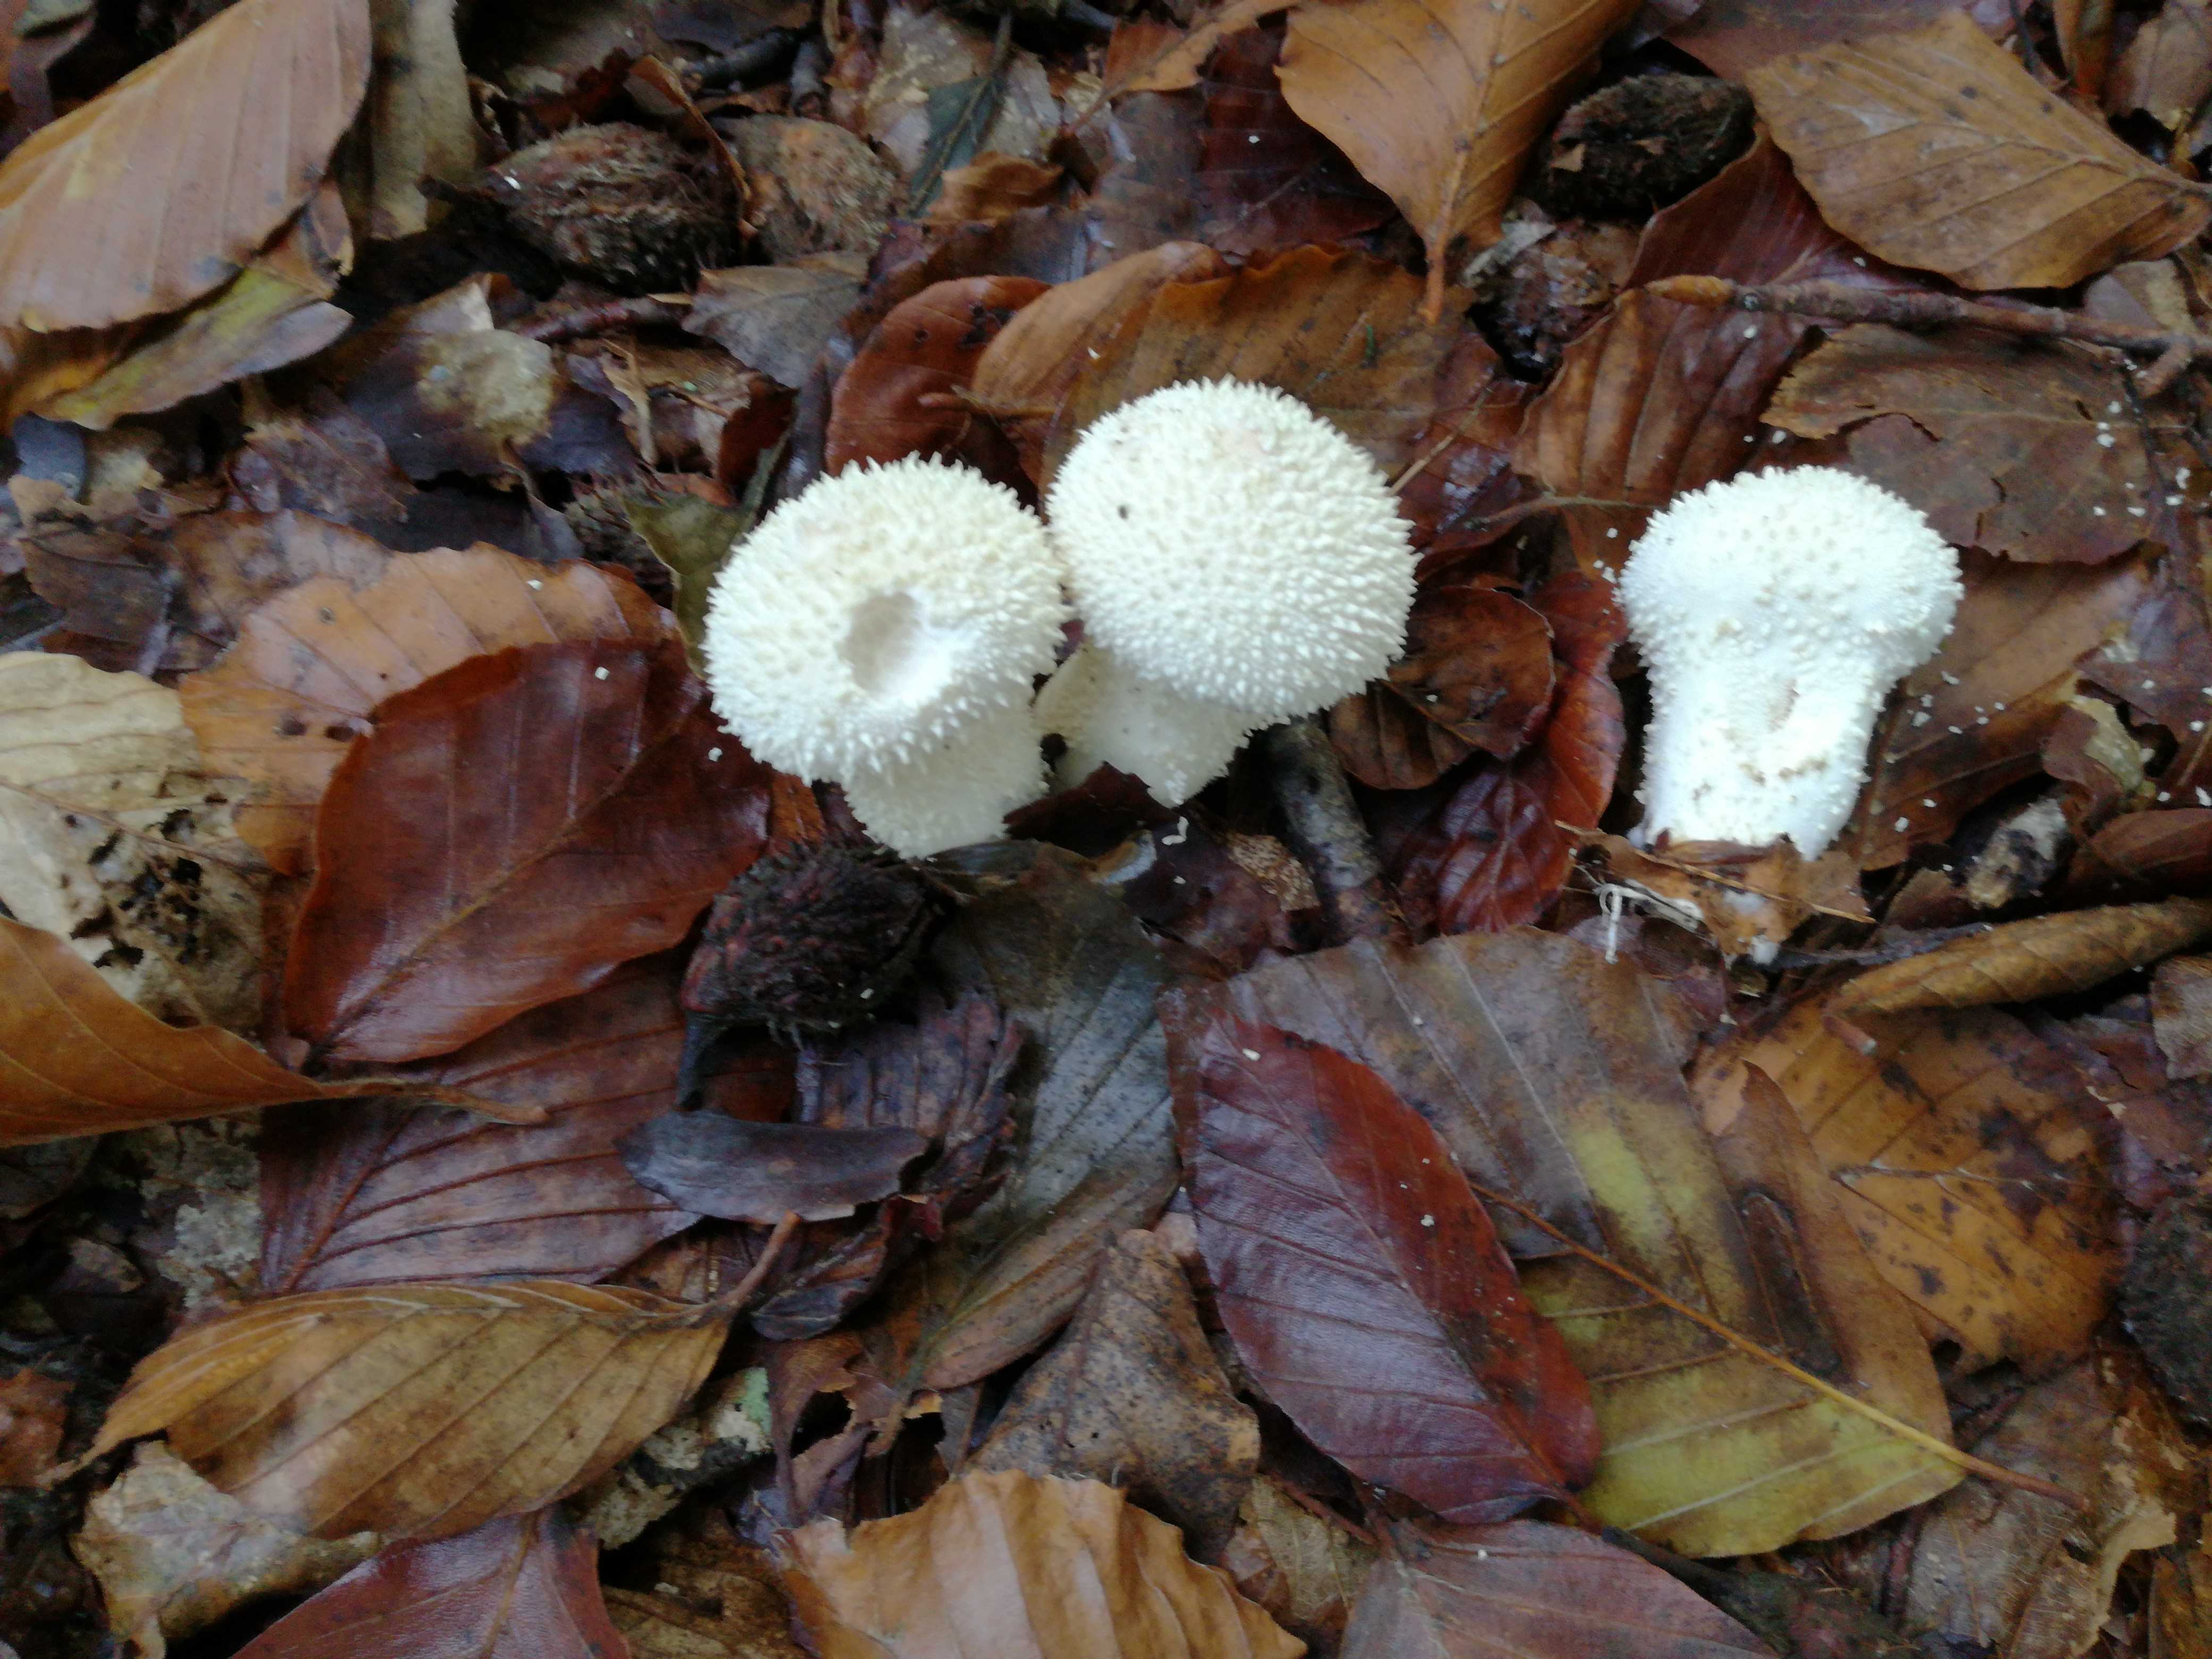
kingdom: Fungi
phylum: Basidiomycota
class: Agaricomycetes
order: Agaricales
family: Lycoperdaceae
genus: Lycoperdon
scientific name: Lycoperdon perlatum
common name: krystal-støvbold
